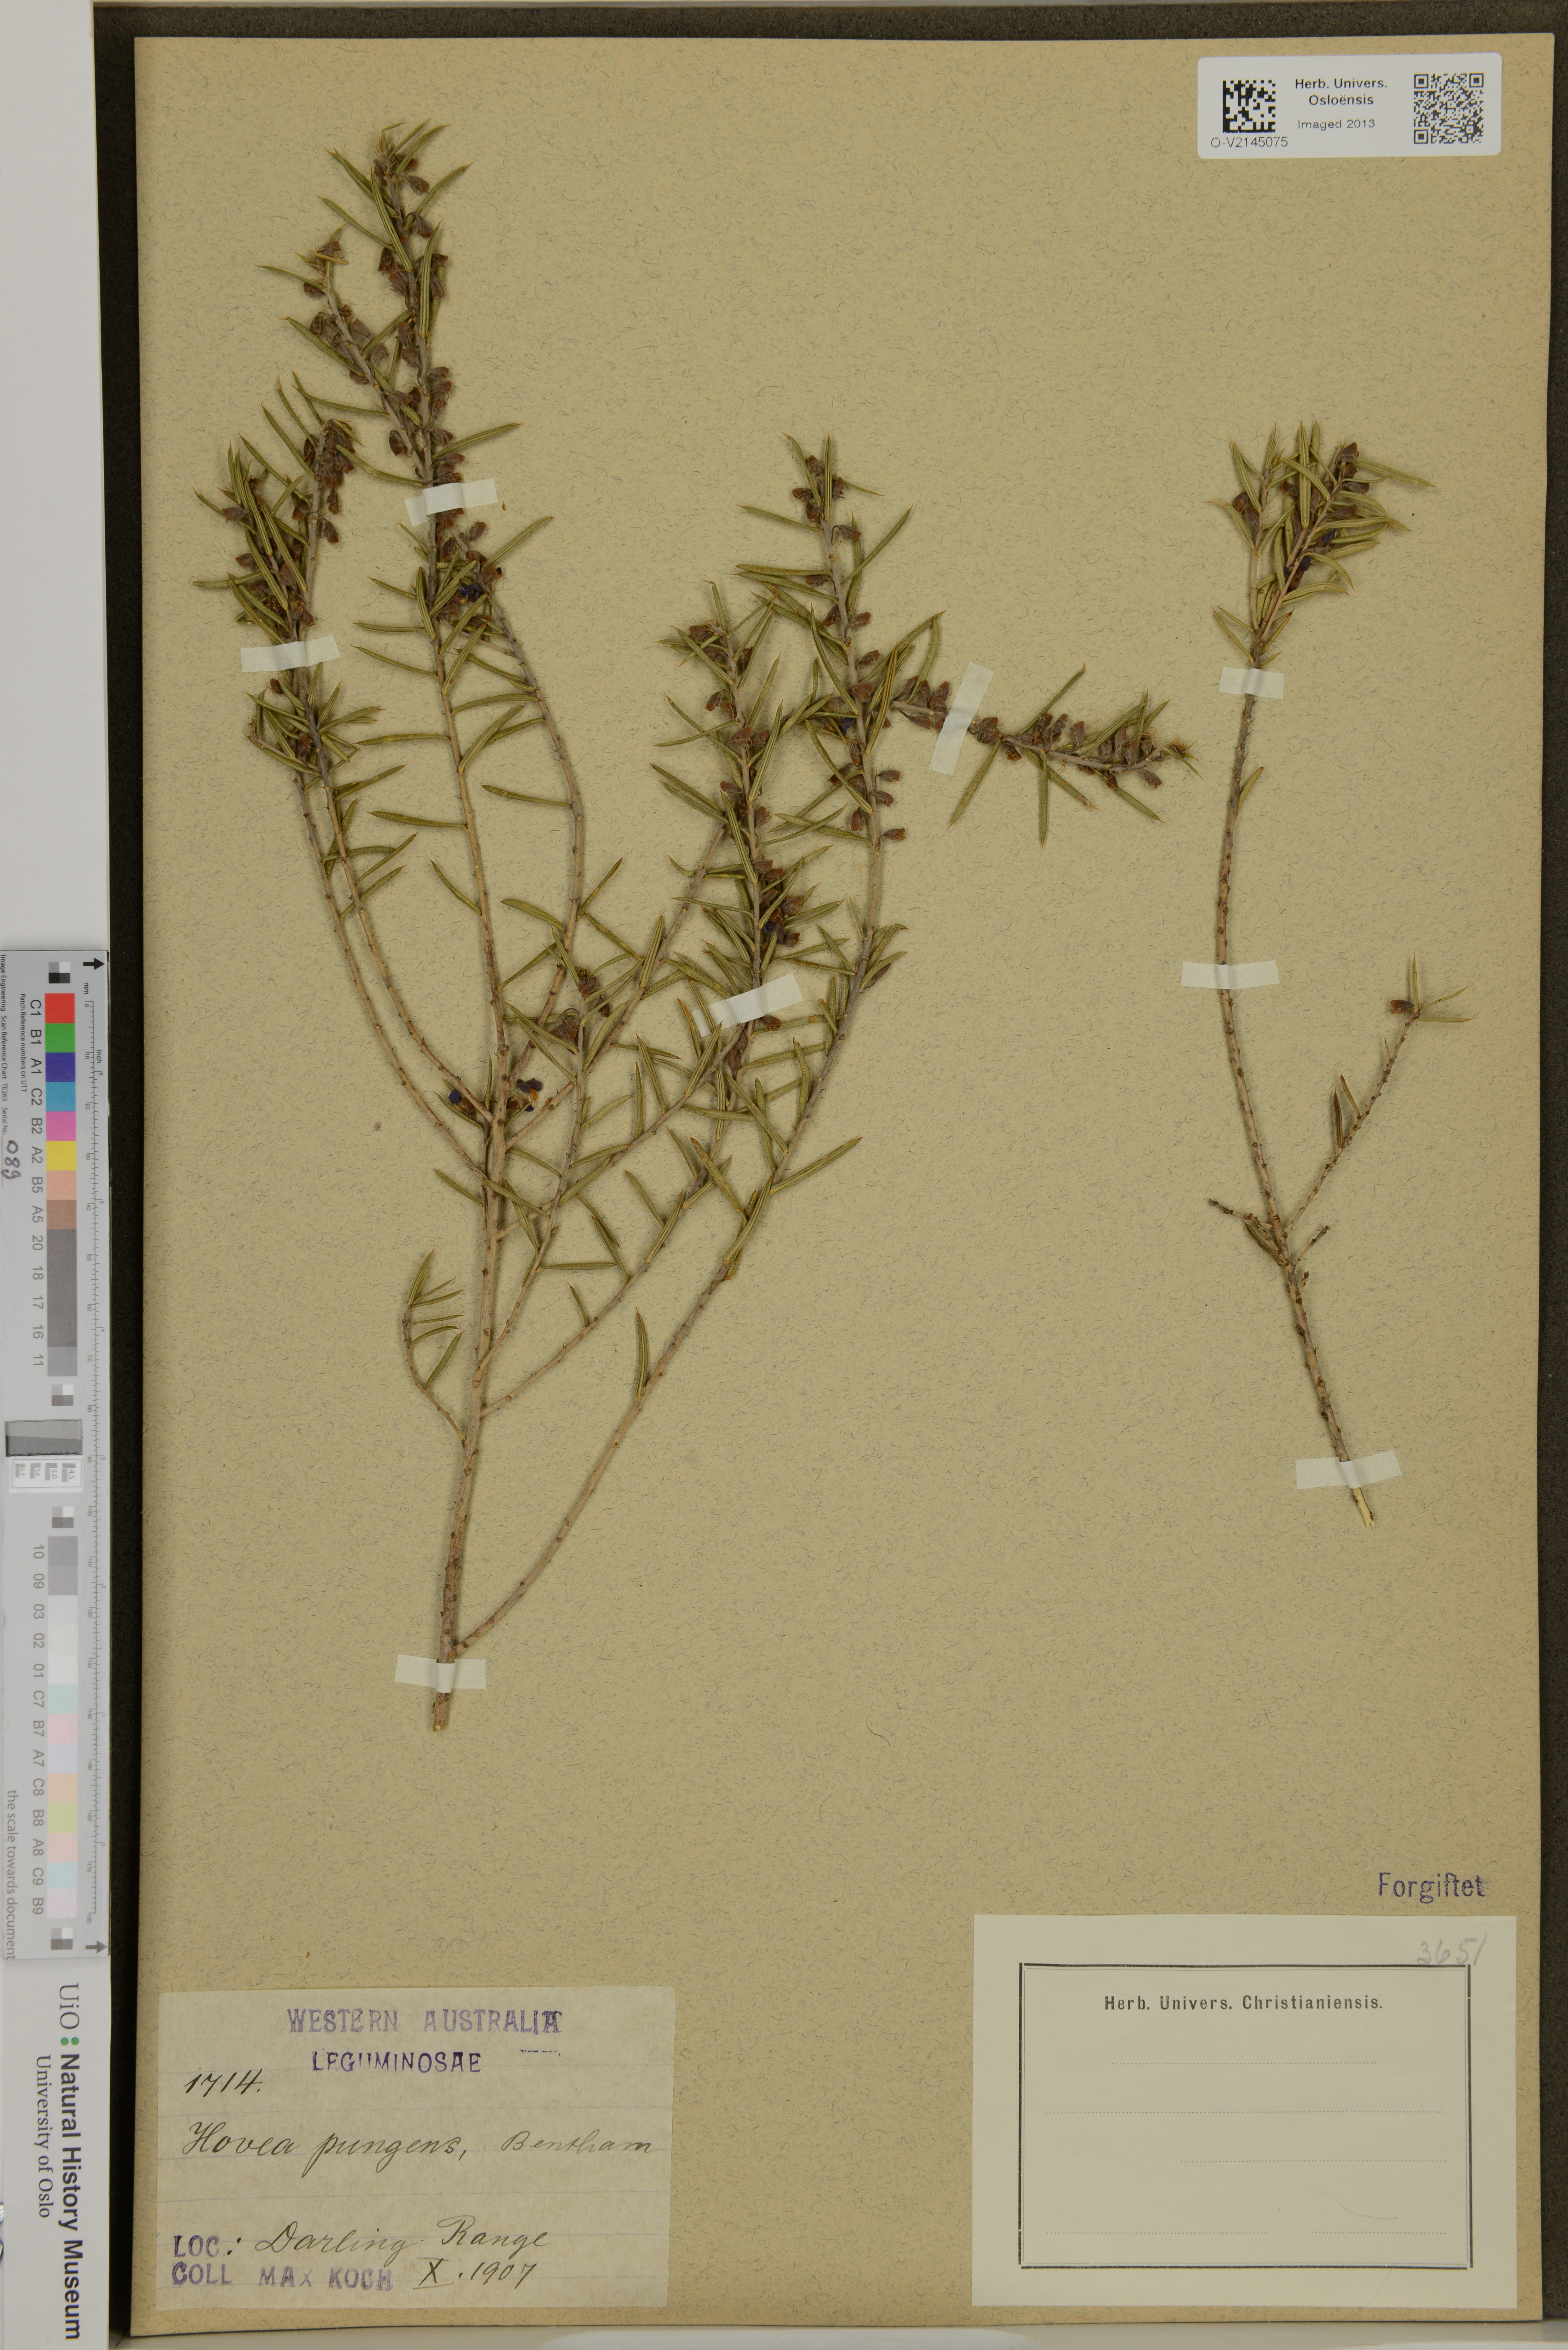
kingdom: Plantae
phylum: Tracheophyta
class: Magnoliopsida
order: Fabales
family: Fabaceae
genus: Hovea
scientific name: Hovea pungens
